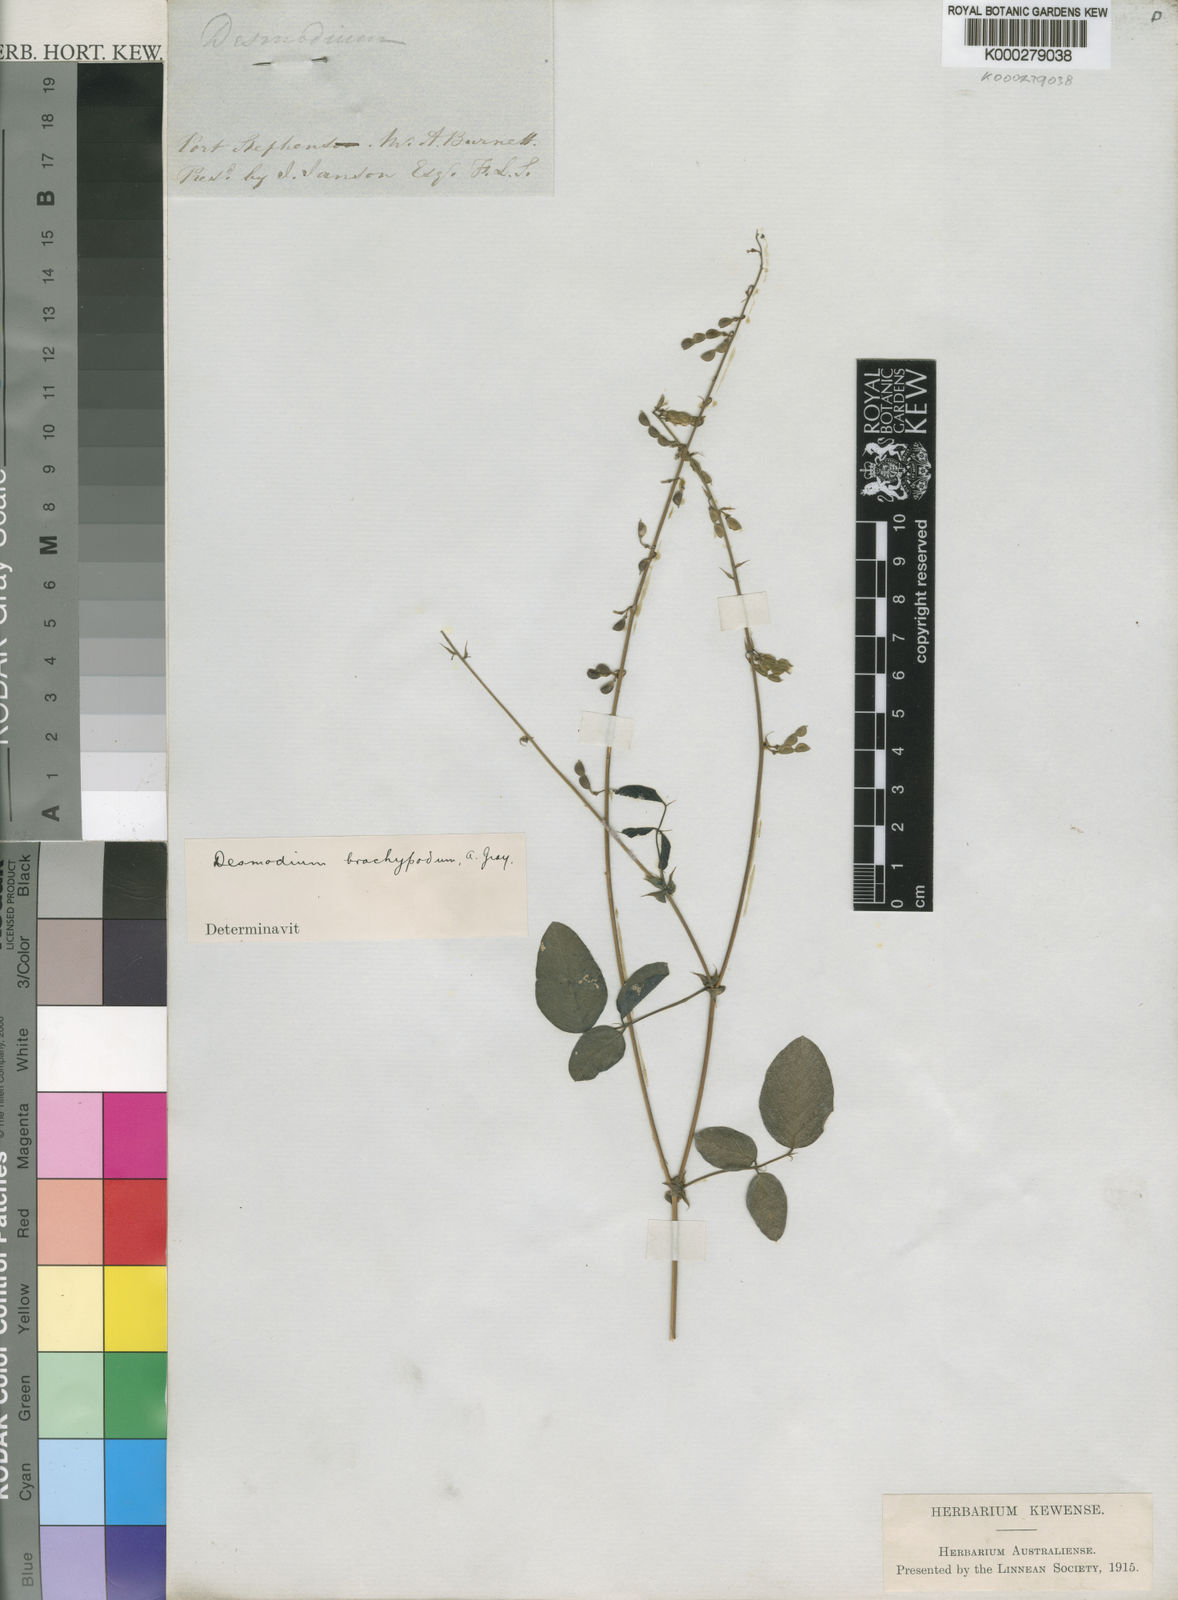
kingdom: Plantae
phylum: Tracheophyta
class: Magnoliopsida
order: Fabales
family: Fabaceae
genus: Oxytes
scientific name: Oxytes brachypoda
